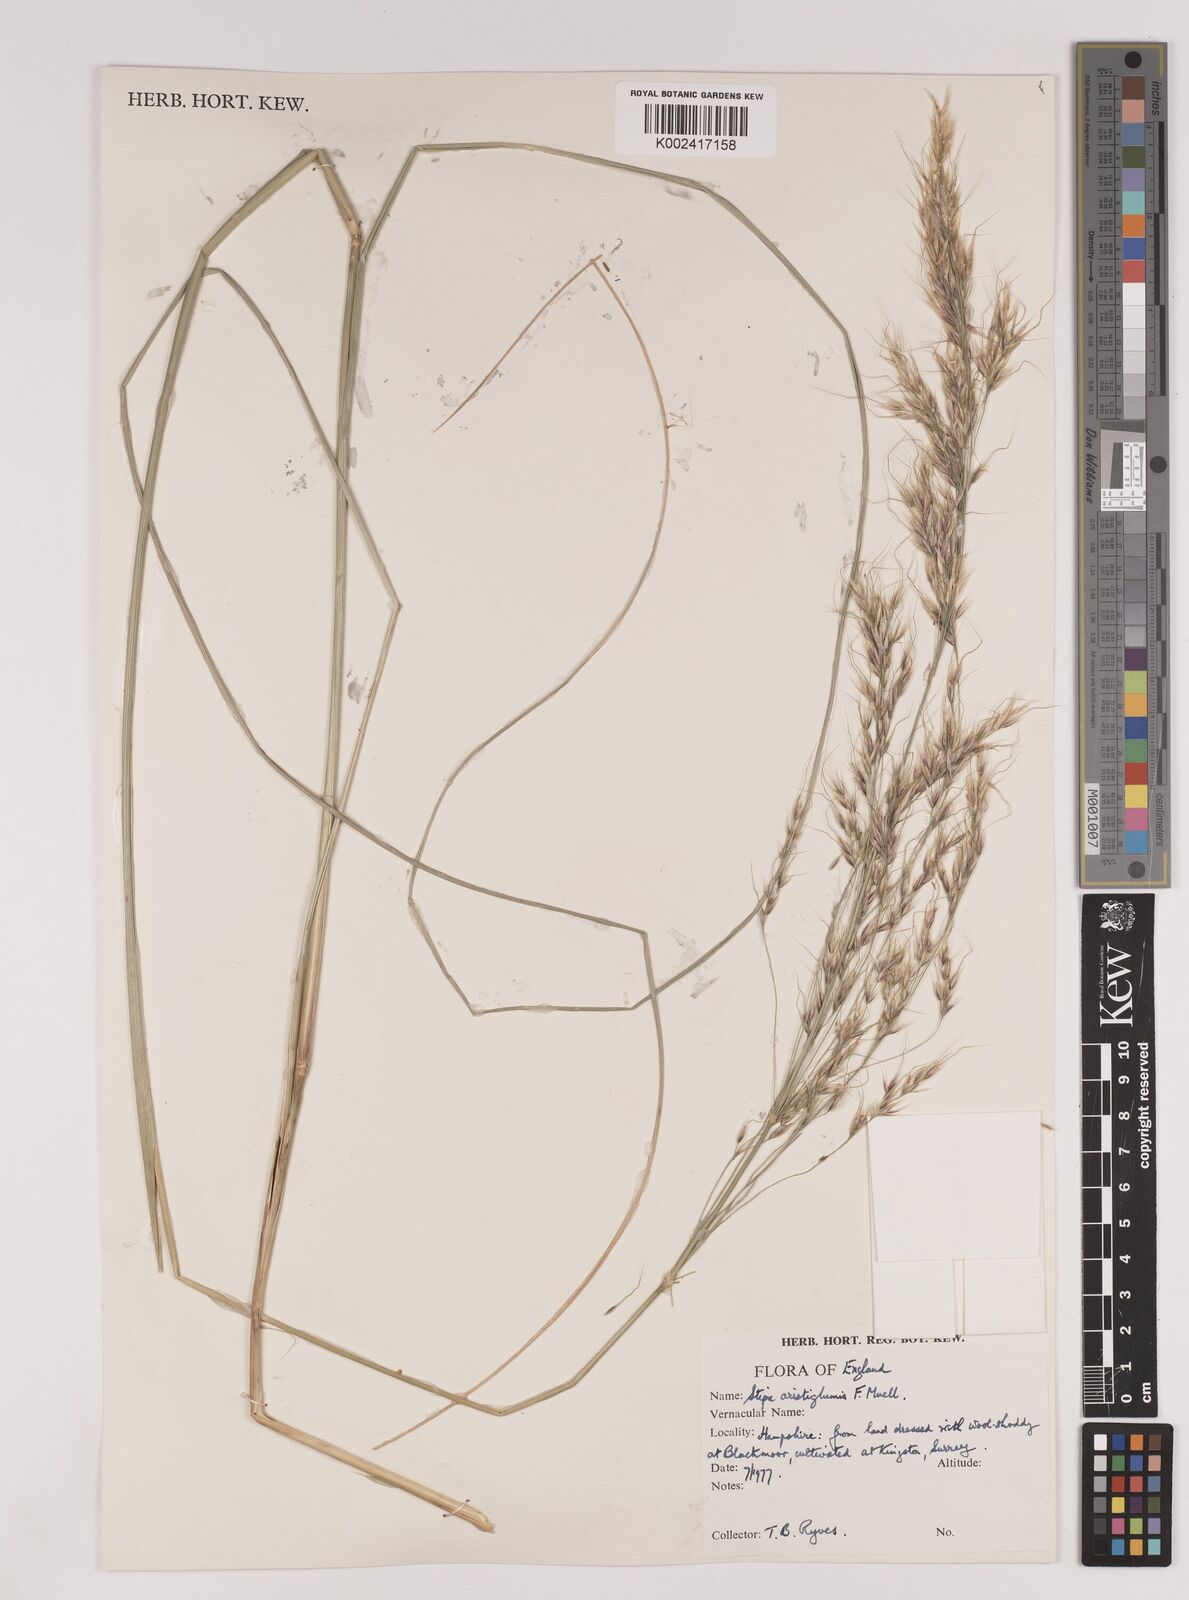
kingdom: Plantae
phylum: Tracheophyta
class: Liliopsida
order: Poales
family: Poaceae
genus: Austrostipa
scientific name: Austrostipa aristiglumis
